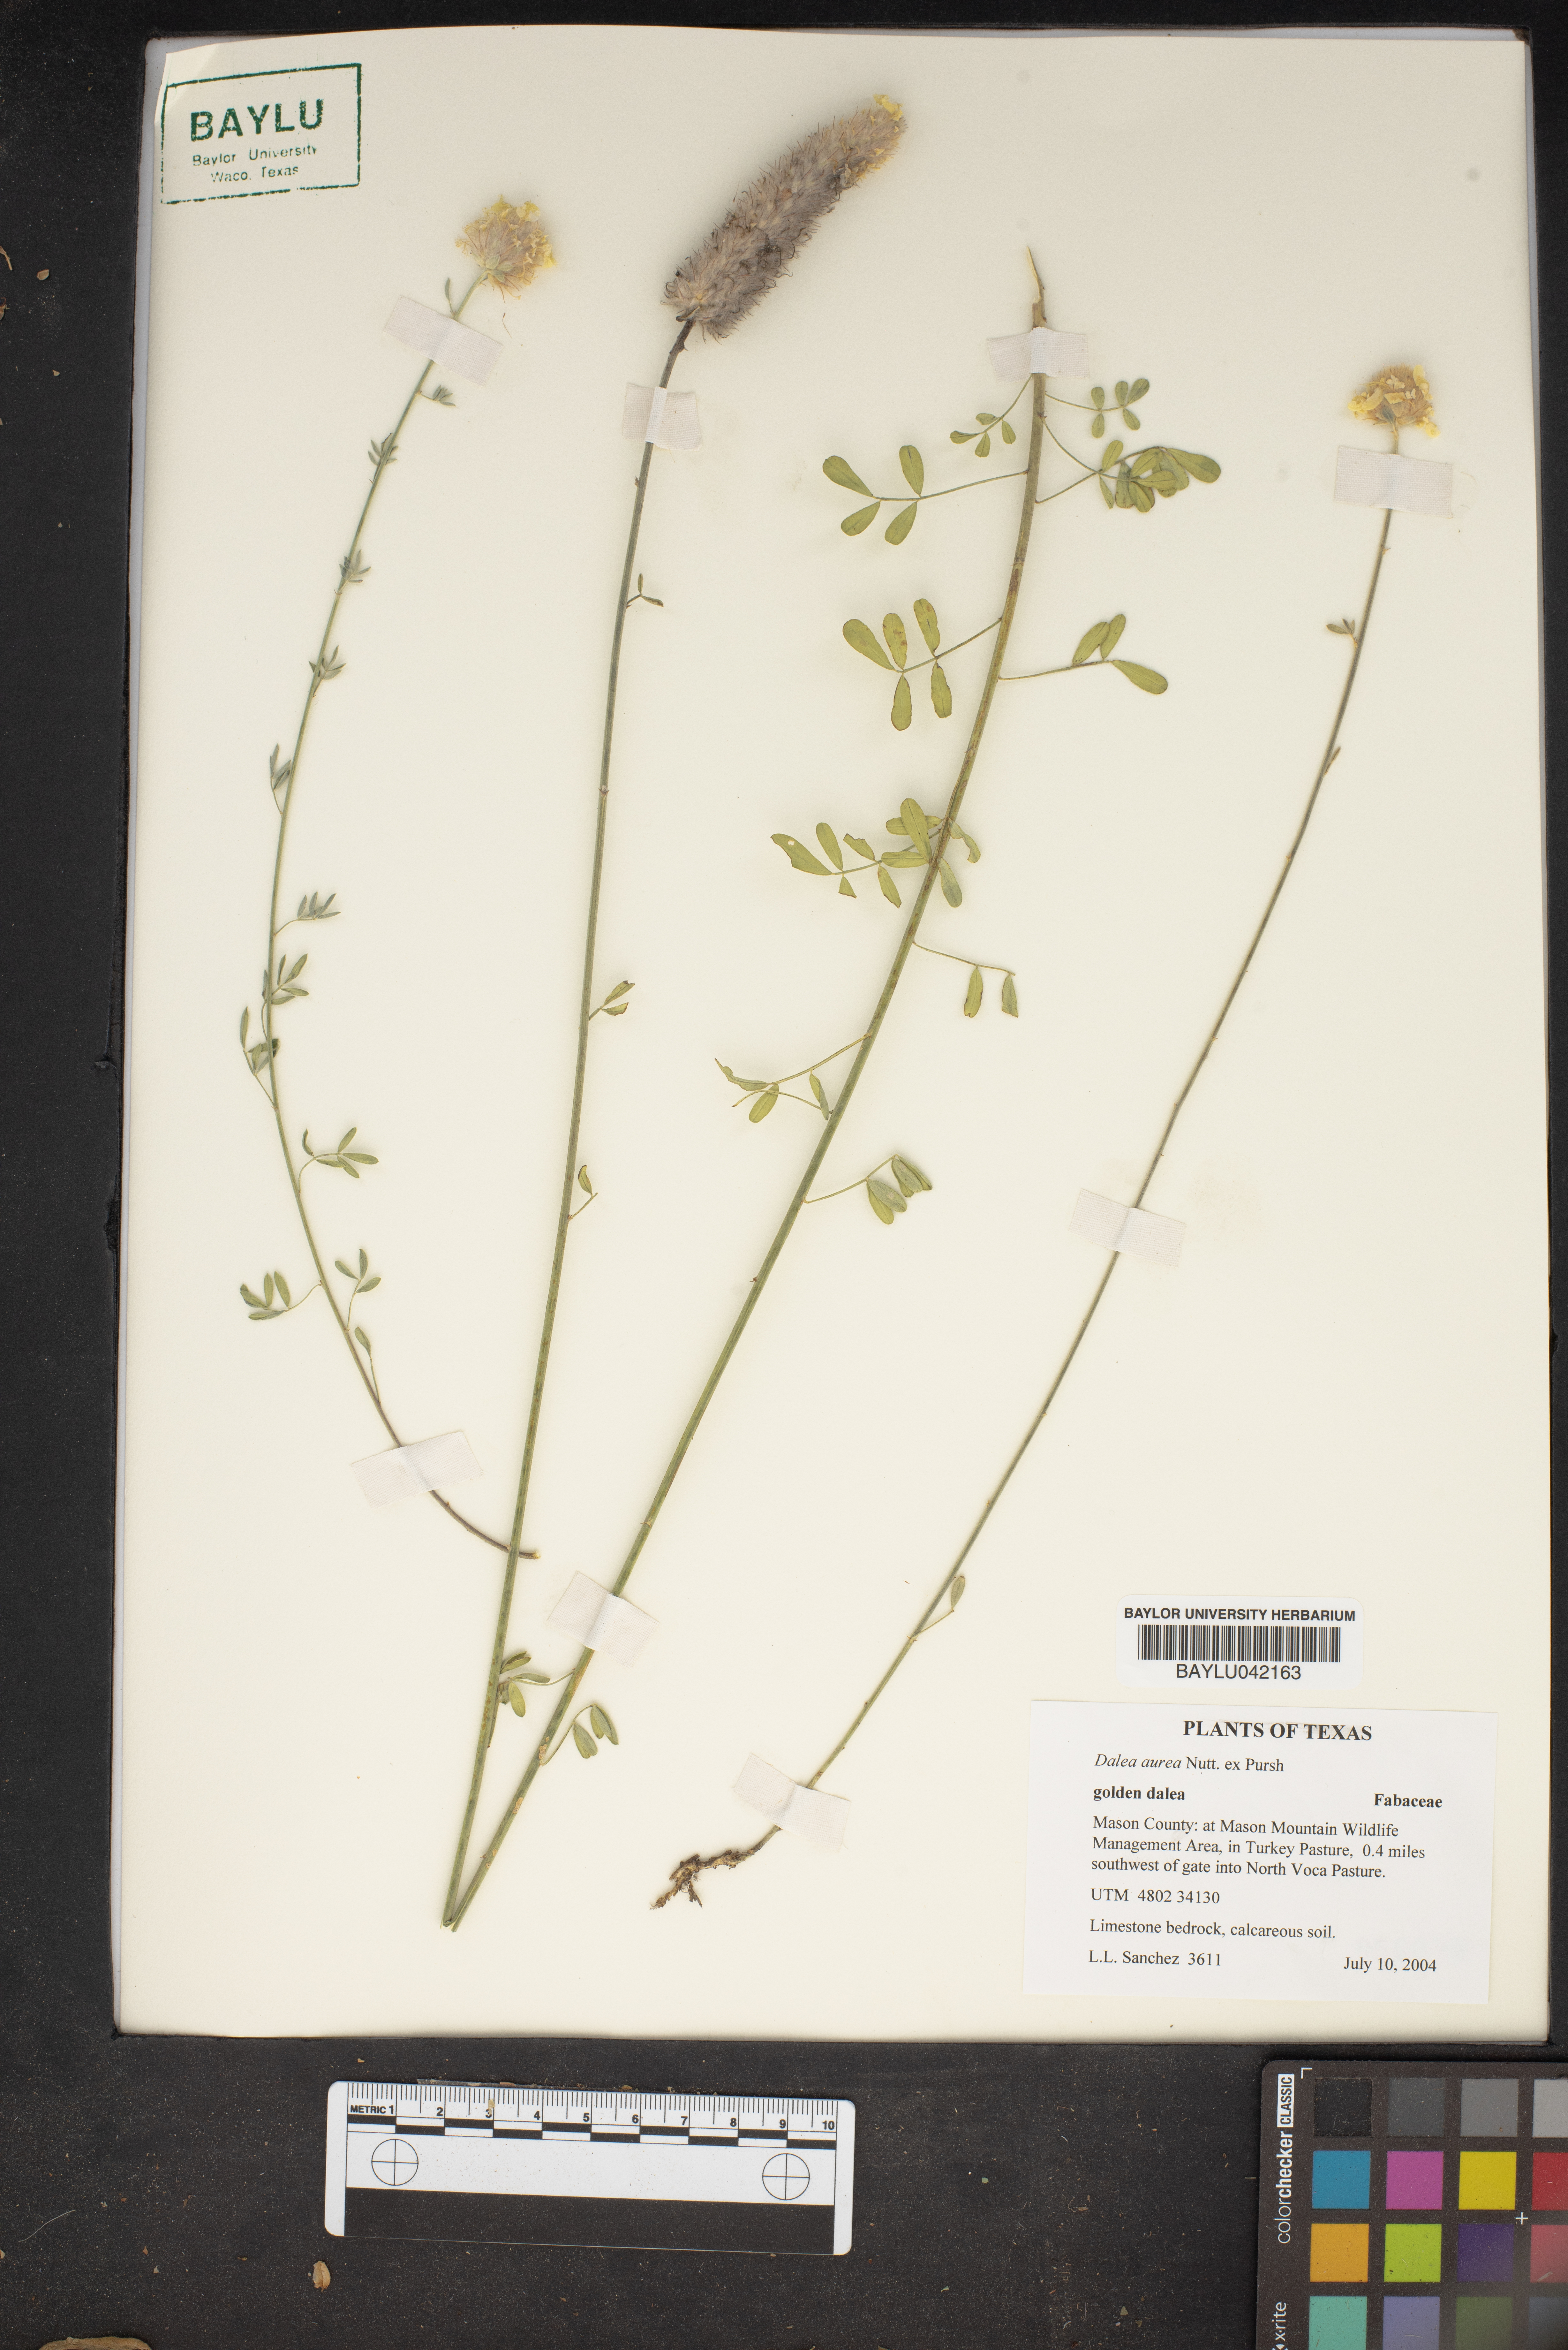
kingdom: Plantae
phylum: Tracheophyta
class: Magnoliopsida
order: Fabales
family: Fabaceae
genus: Dalea
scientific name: Dalea aurea
